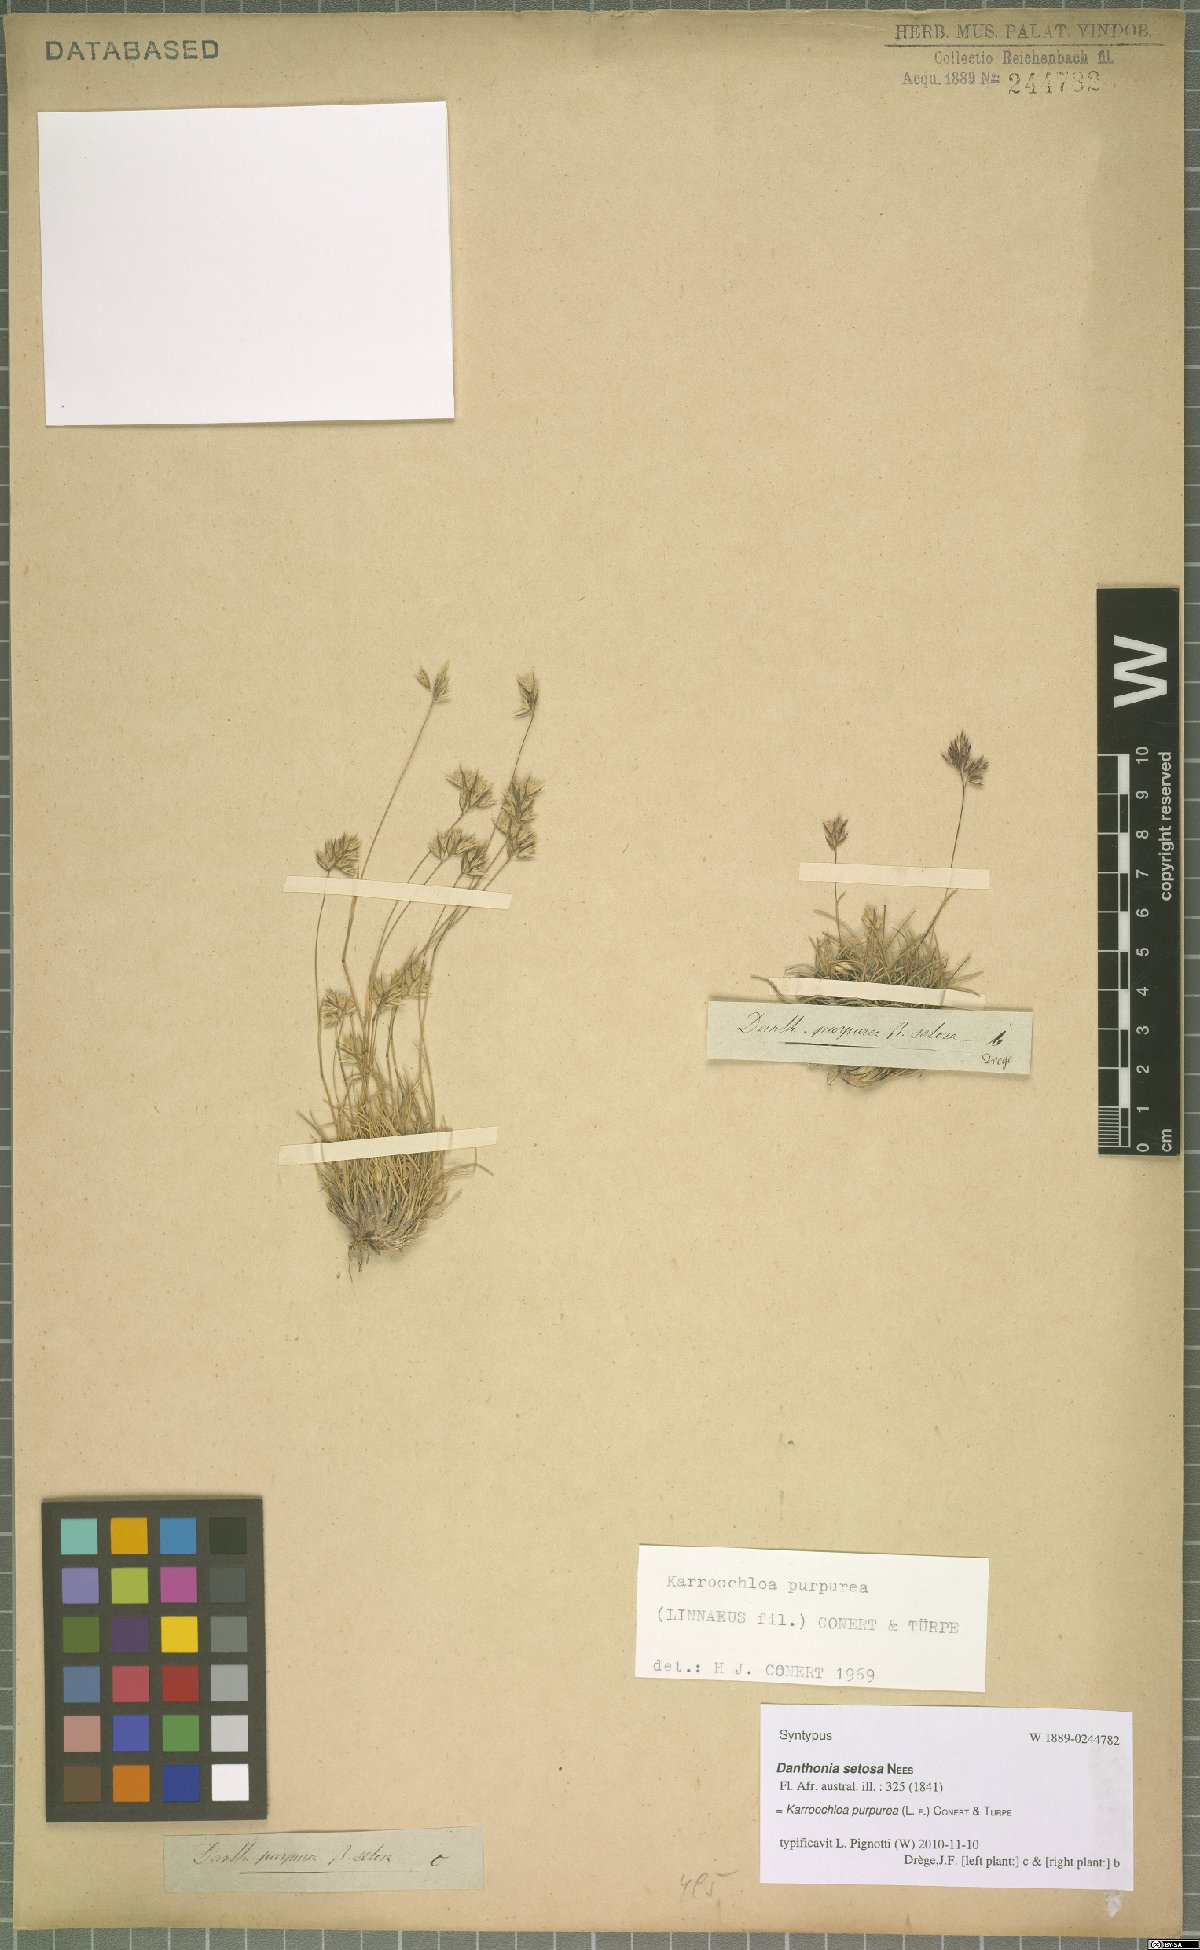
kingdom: Plantae
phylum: Tracheophyta
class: Liliopsida
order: Poales
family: Poaceae
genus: Tribolium
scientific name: Tribolium purpureum
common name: Grass
